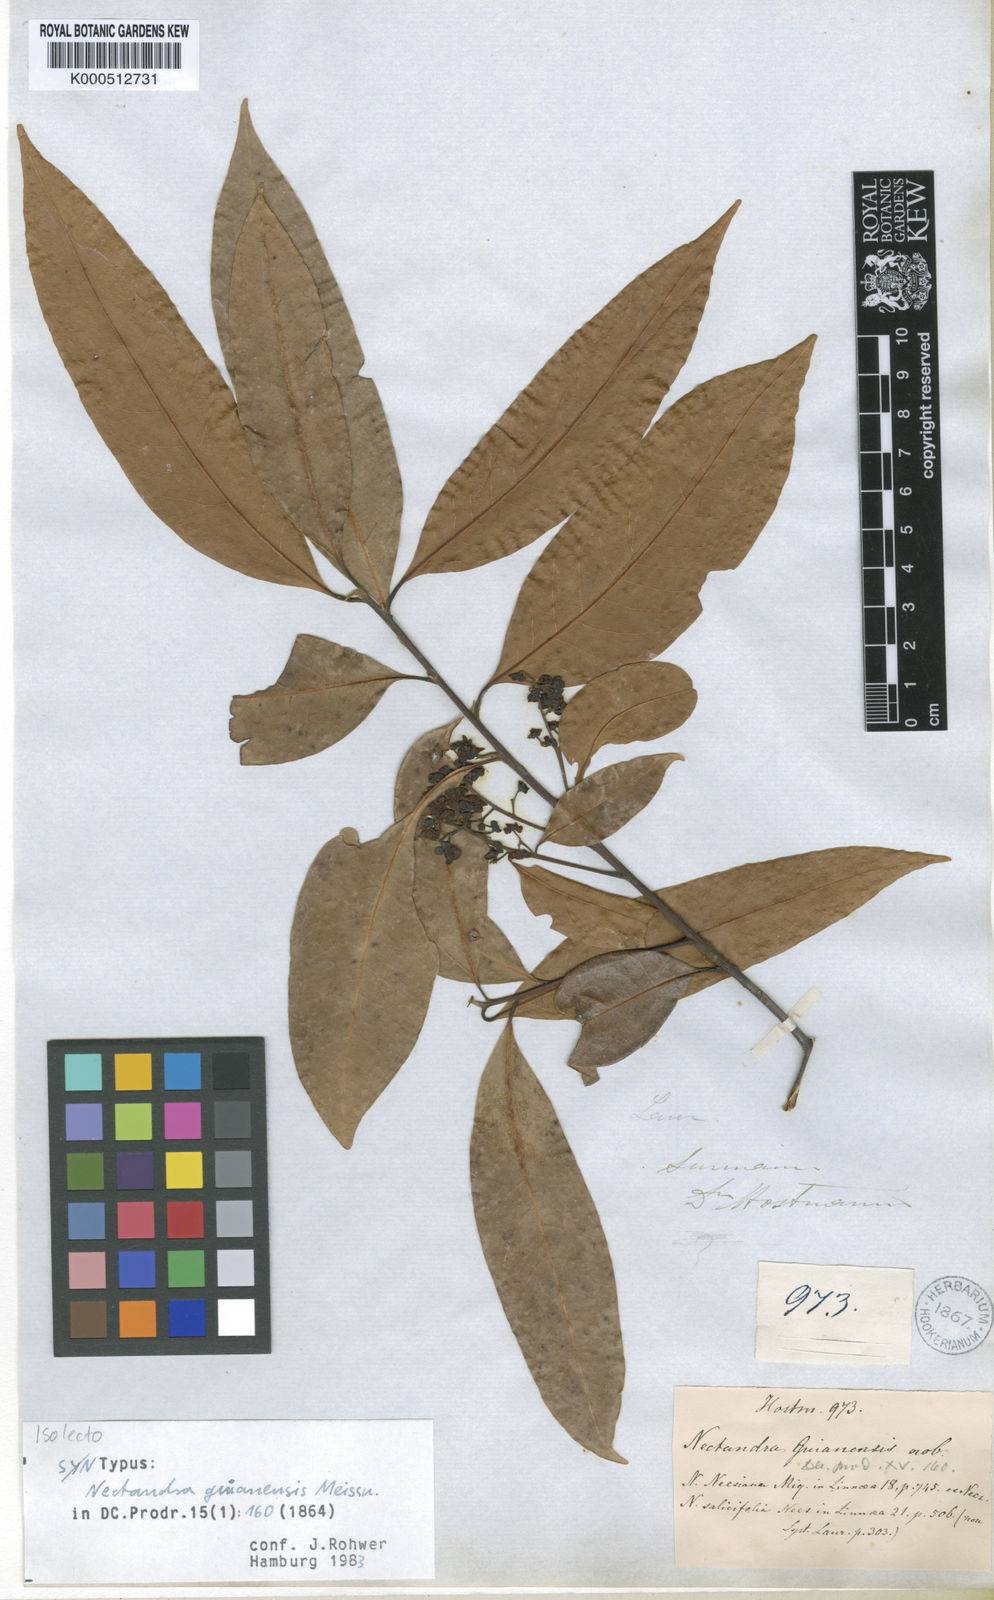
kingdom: Plantae
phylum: Tracheophyta
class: Magnoliopsida
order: Laurales
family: Lauraceae
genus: Nectandra
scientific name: Nectandra sanguinea
